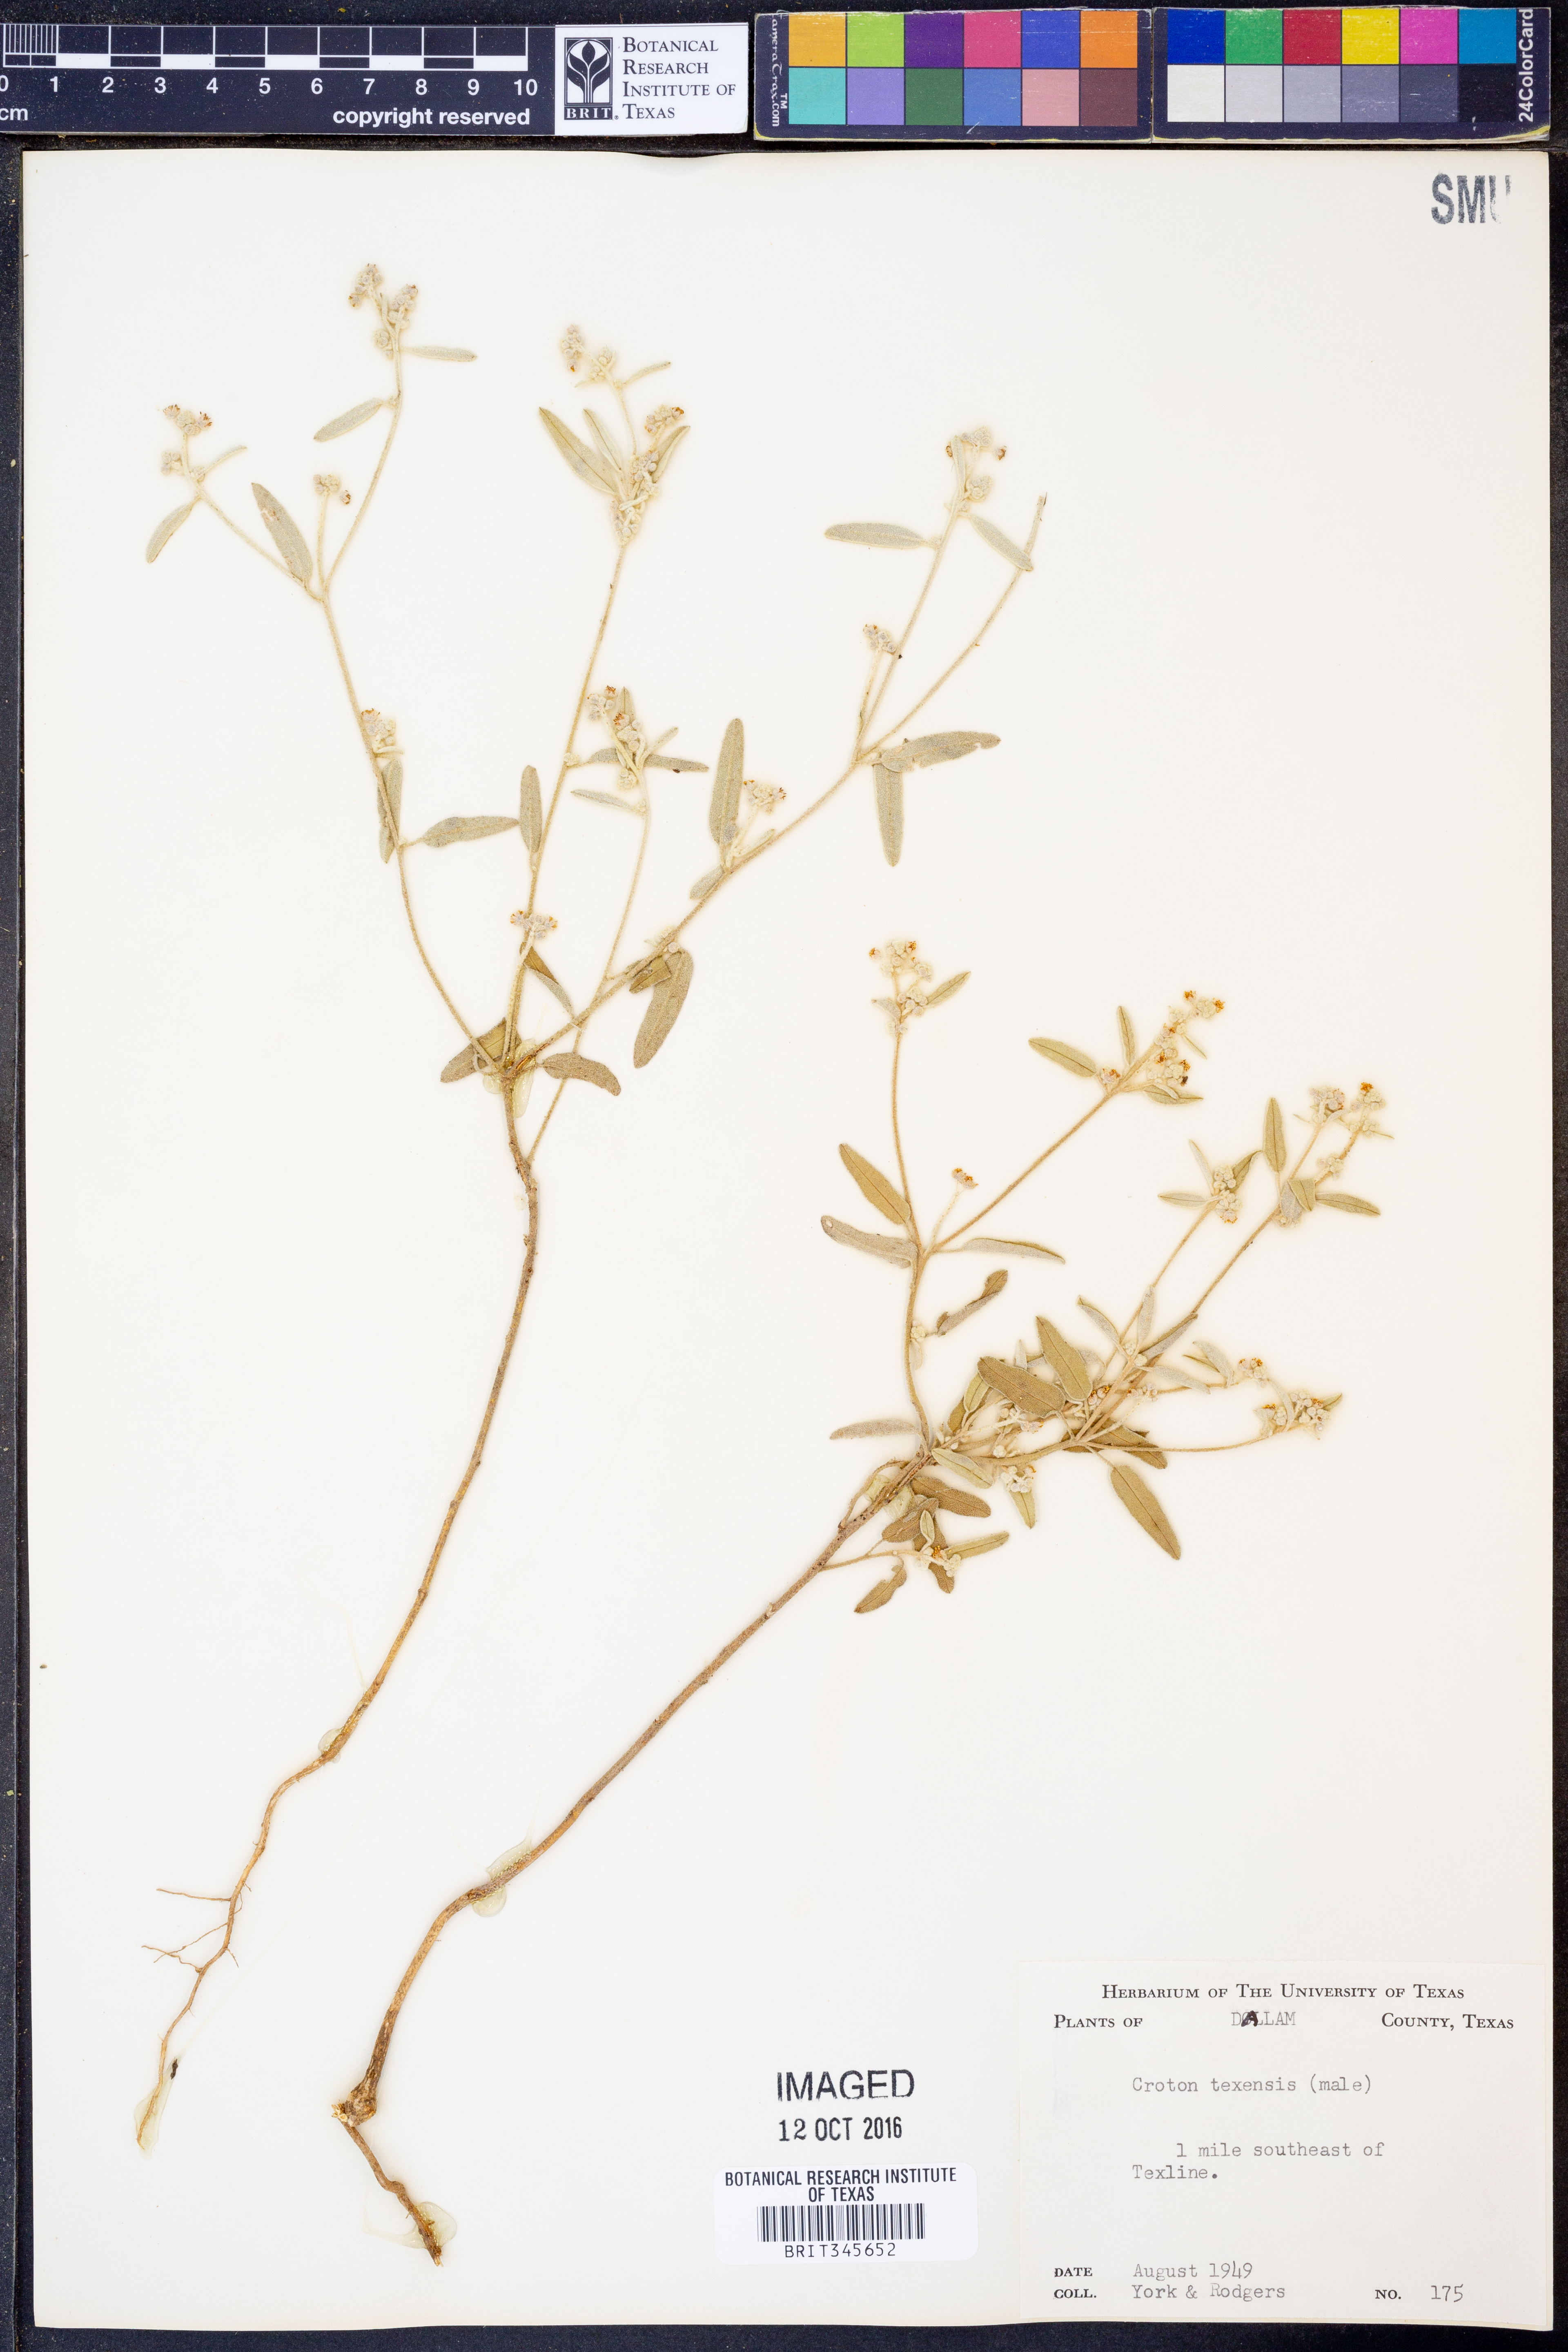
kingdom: Plantae
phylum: Tracheophyta
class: Magnoliopsida
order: Malpighiales
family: Euphorbiaceae
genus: Croton
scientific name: Croton texensis
